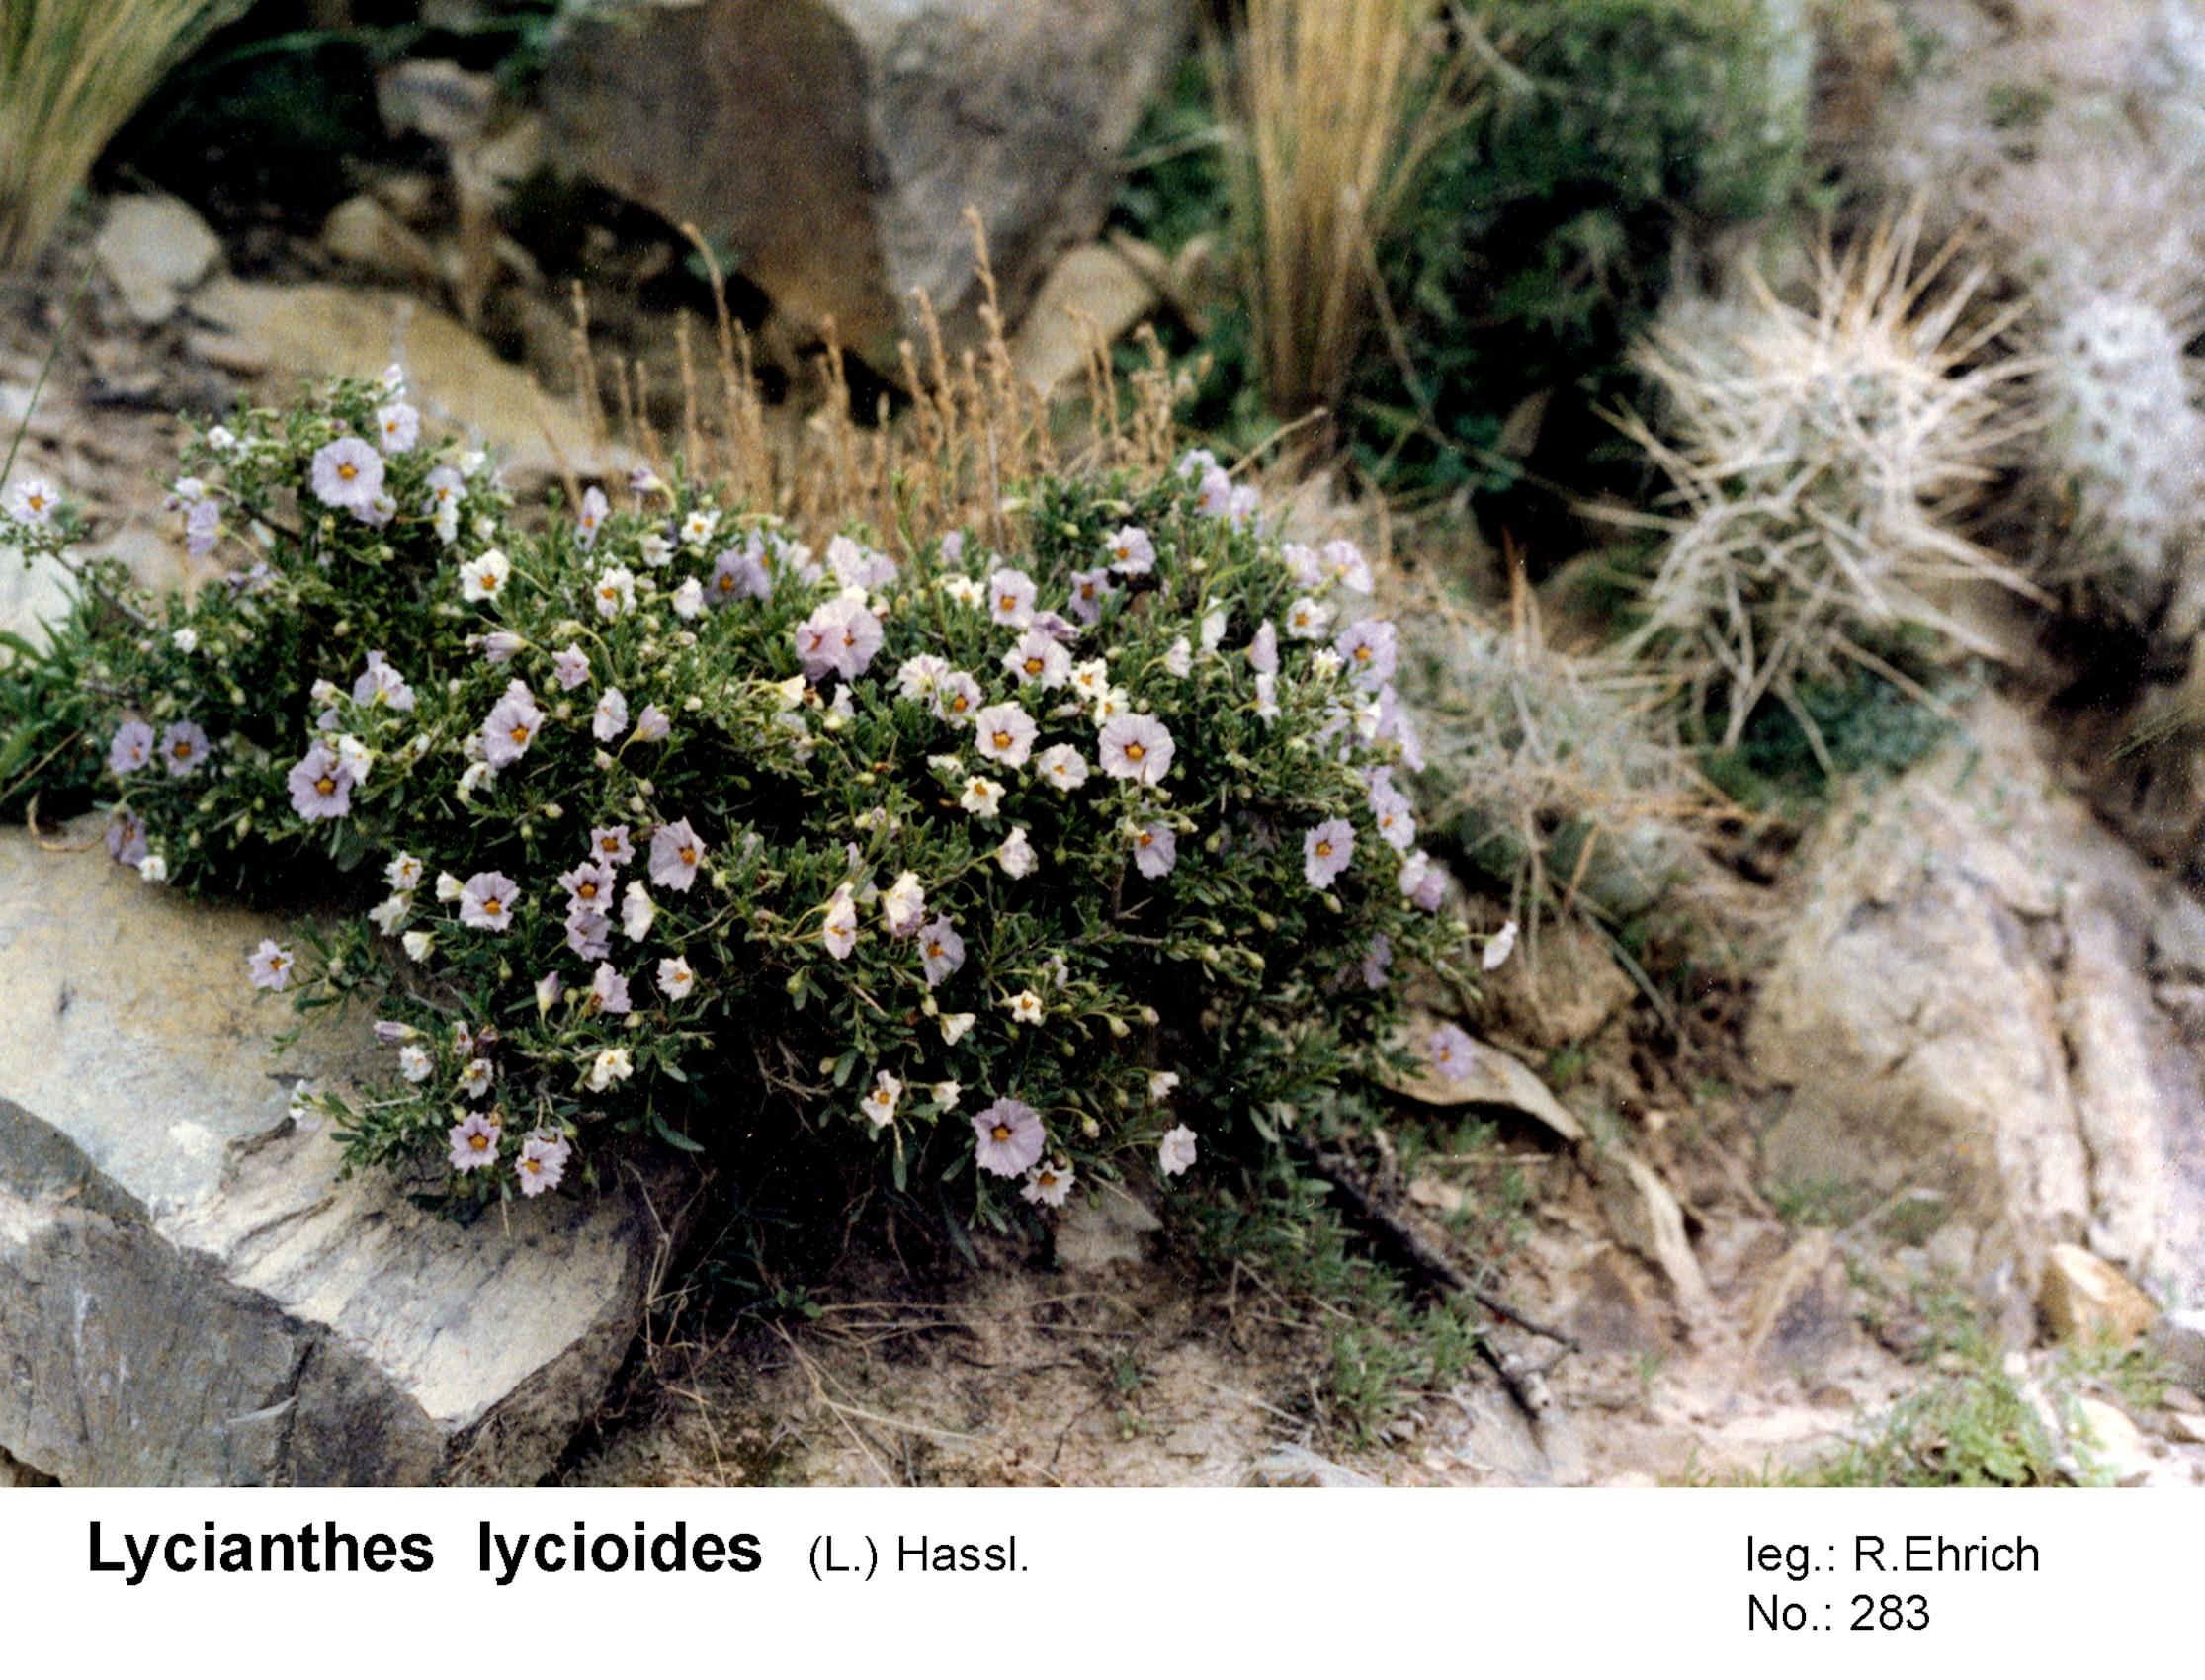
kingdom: Plantae
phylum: Tracheophyta
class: Magnoliopsida
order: Solanales
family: Solanaceae
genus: Lycianthes
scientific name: Lycianthes lycioides
